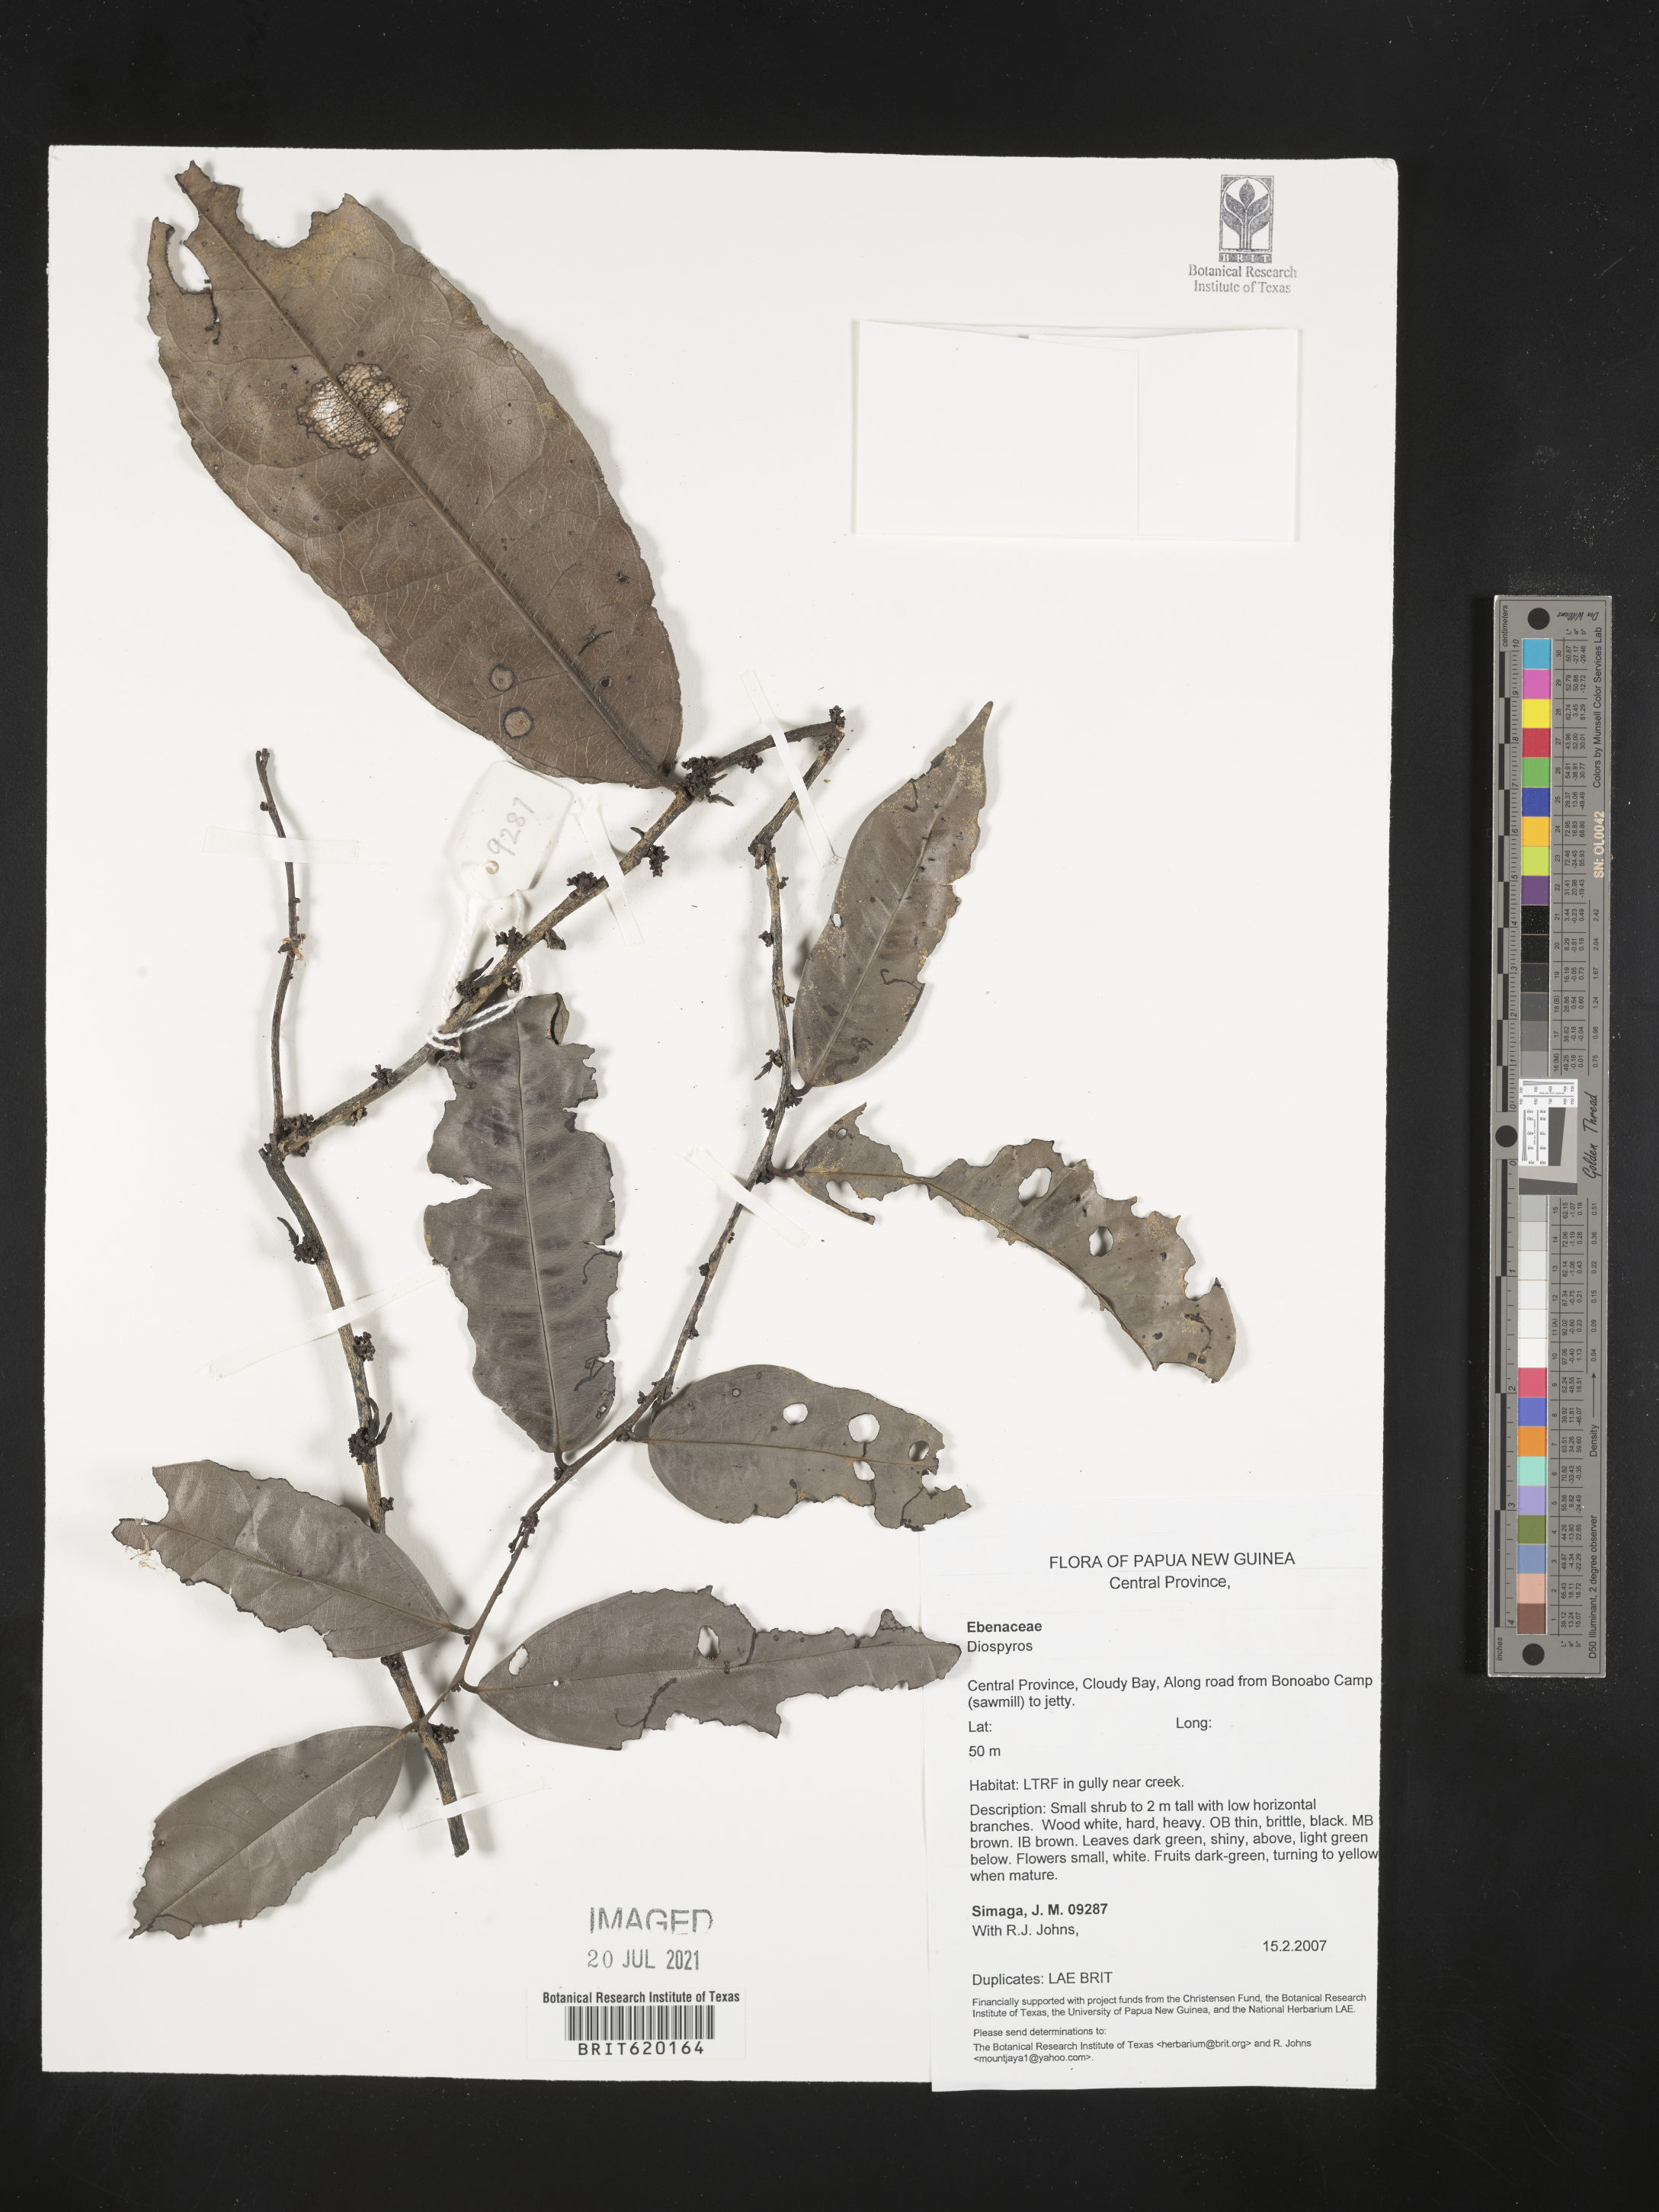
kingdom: Plantae
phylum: Tracheophyta
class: Magnoliopsida
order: Ericales
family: Ebenaceae
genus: Diospyros
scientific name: Diospyros
